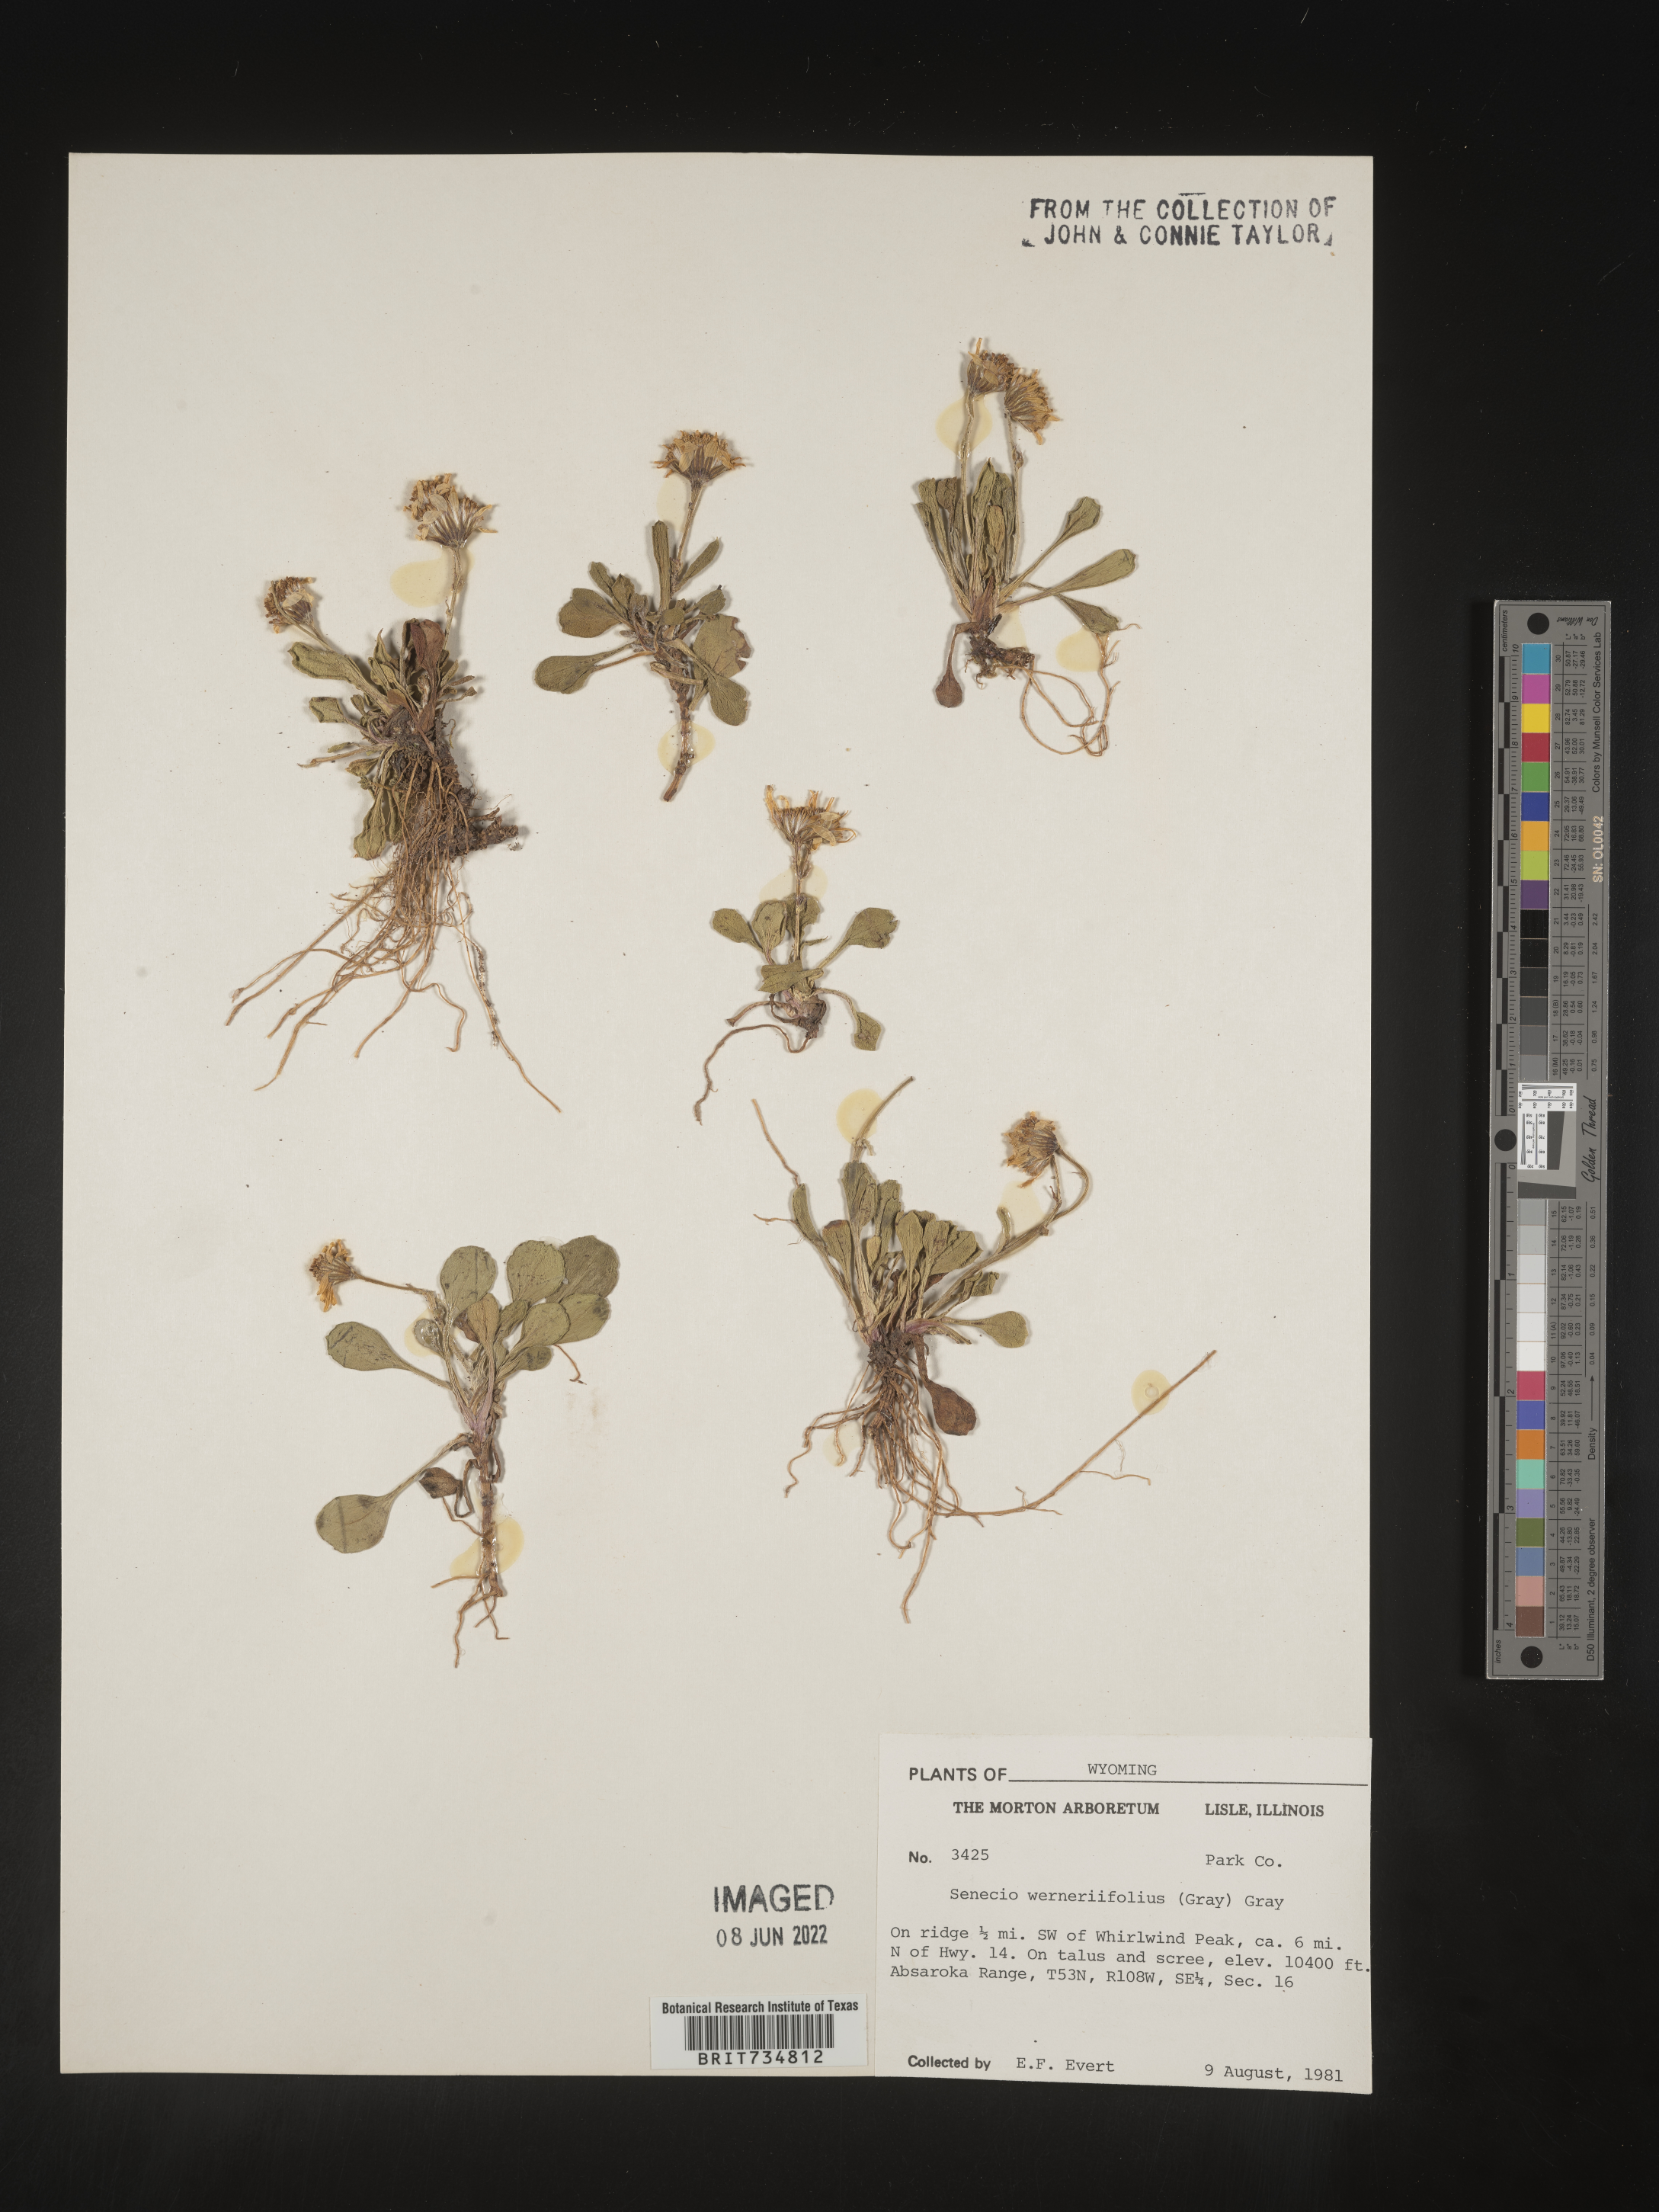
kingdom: Plantae
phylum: Tracheophyta
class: Magnoliopsida
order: Asterales
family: Asteraceae
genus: Packera
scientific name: Packera werneriifolia
